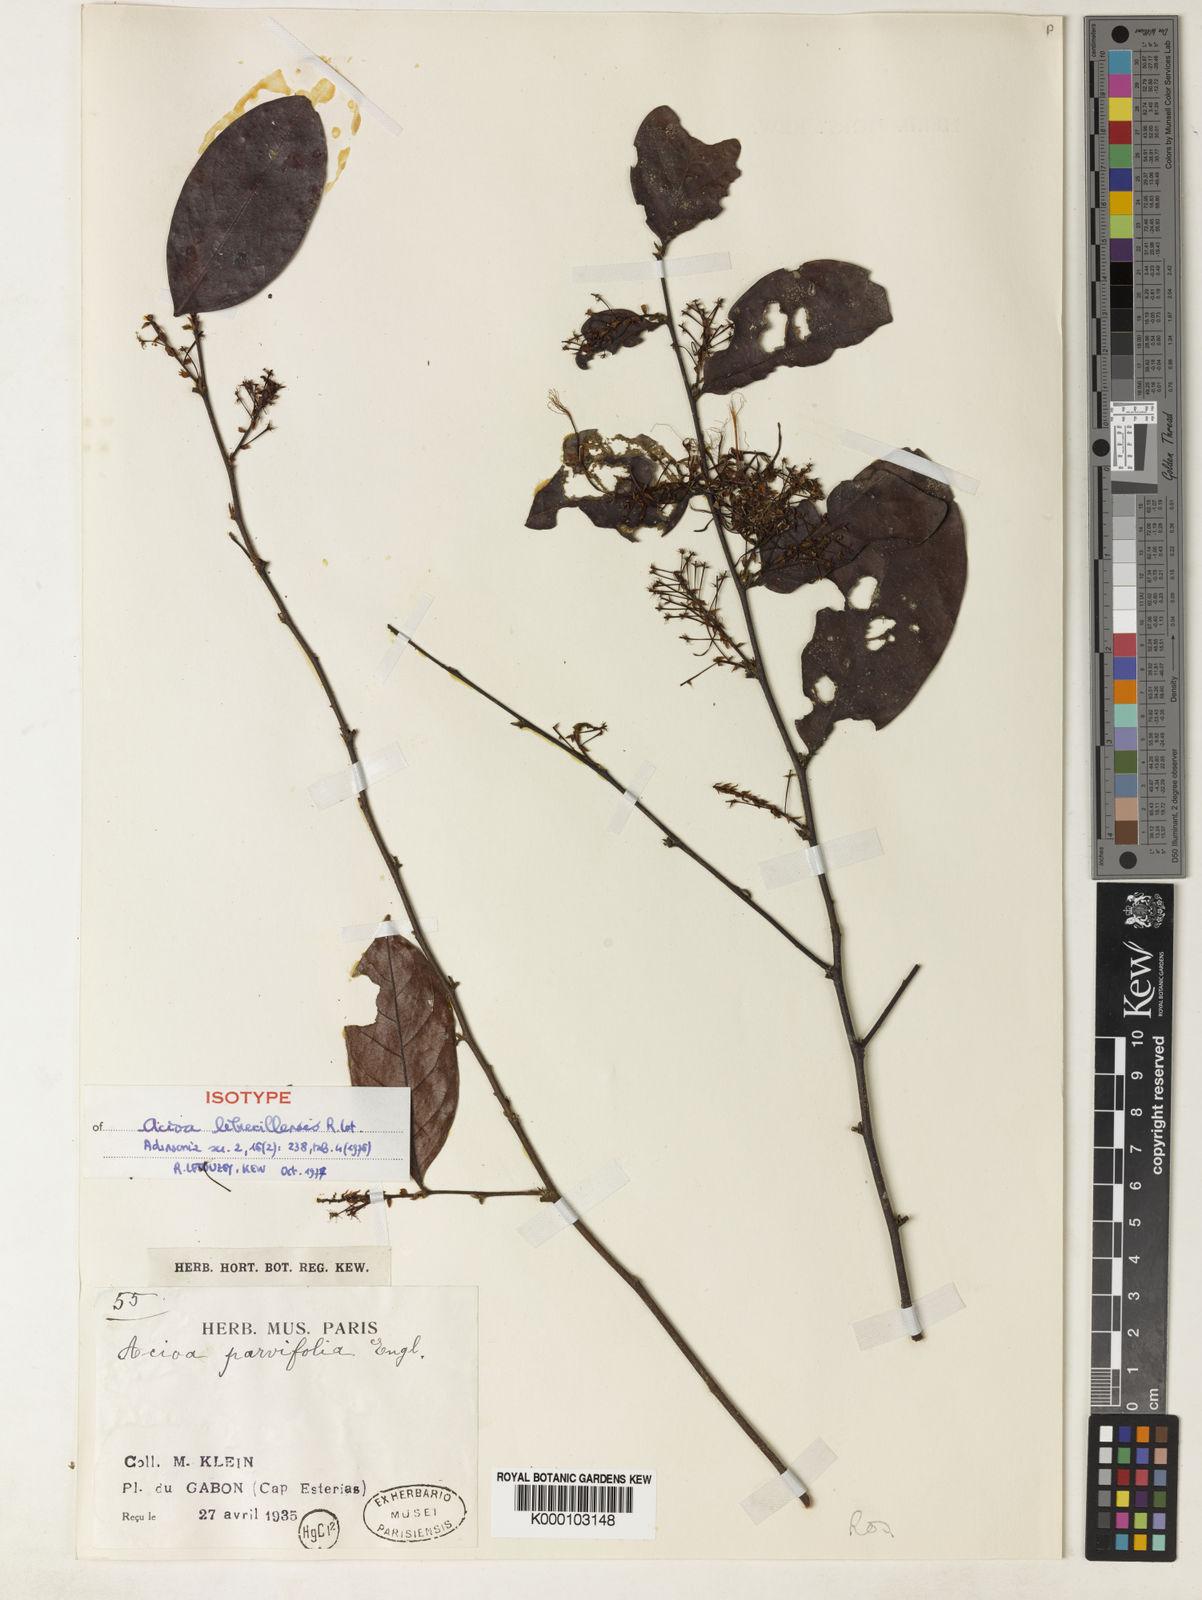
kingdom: Plantae
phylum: Tracheophyta
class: Magnoliopsida
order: Malpighiales
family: Chrysobalanaceae
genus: Dactyladenia
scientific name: Dactyladenia librevillensis
